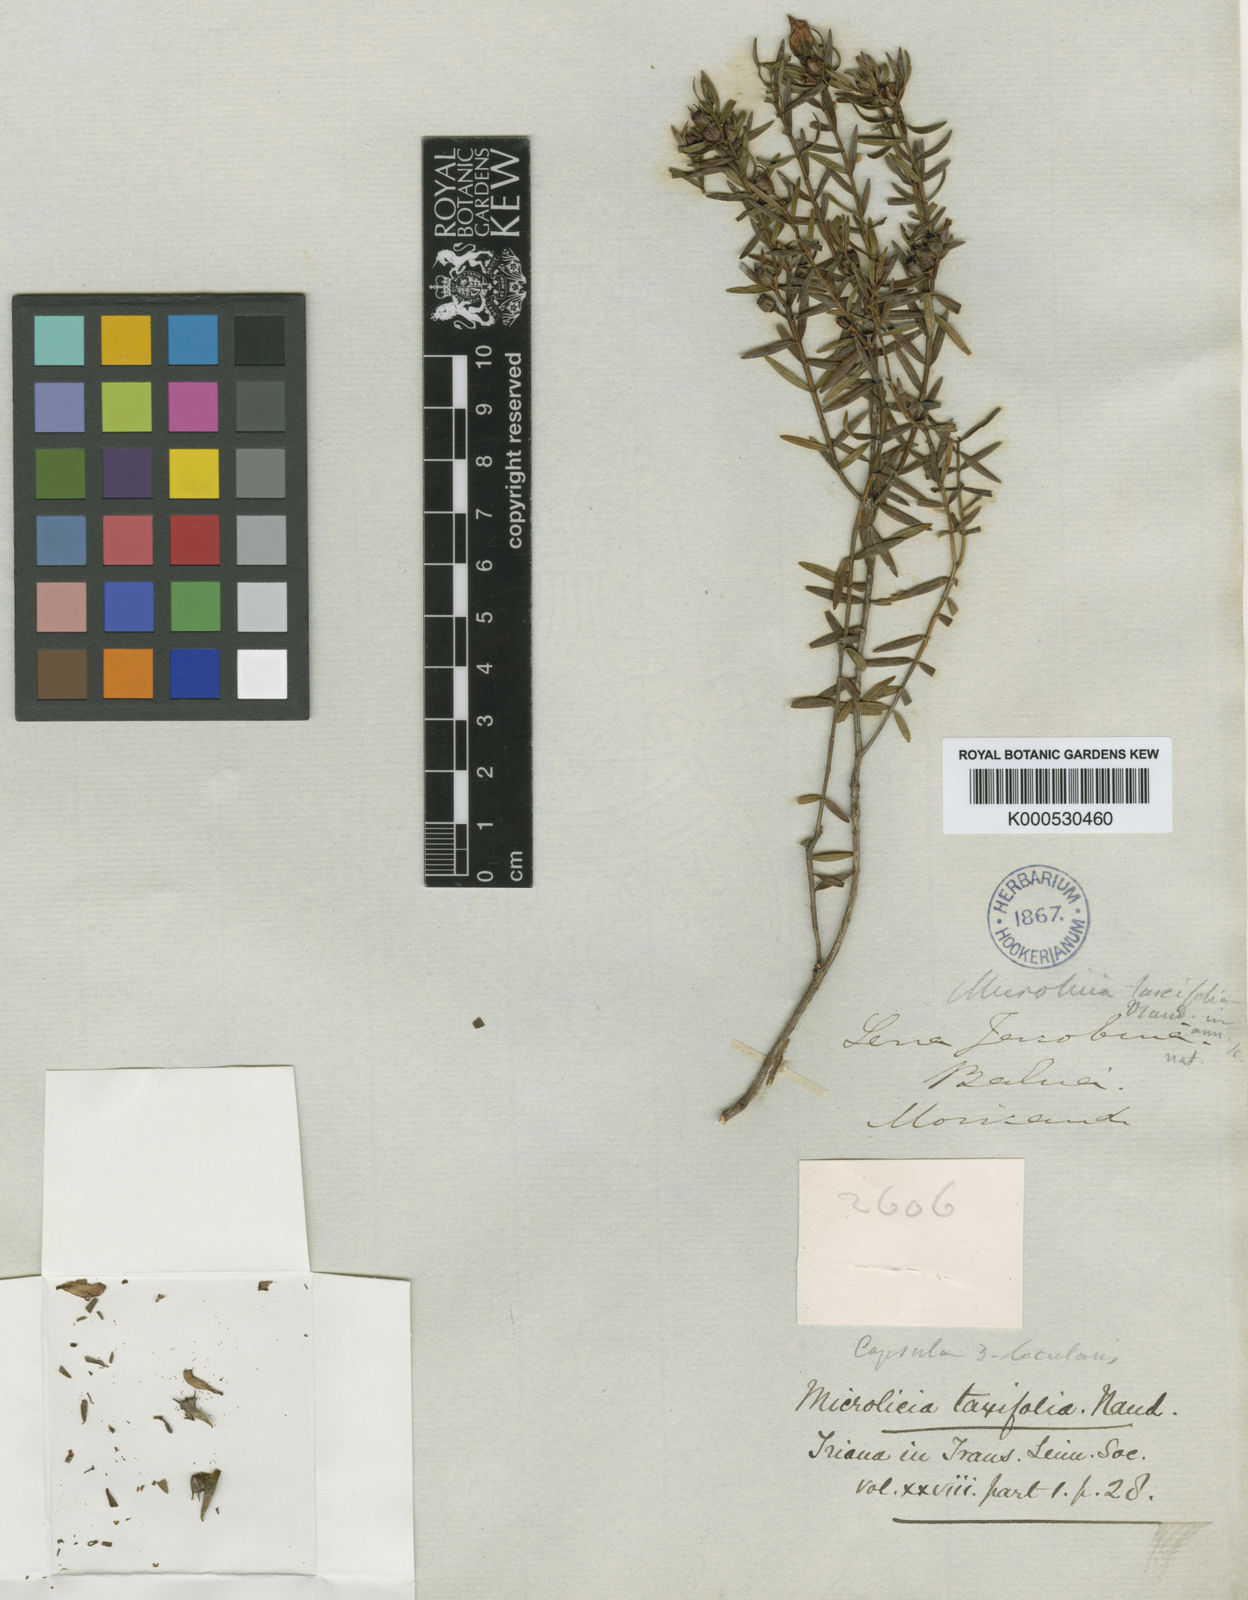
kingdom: Plantae
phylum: Tracheophyta
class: Magnoliopsida
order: Myrtales
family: Melastomataceae
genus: Microlicia
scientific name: Microlicia taxifolia
